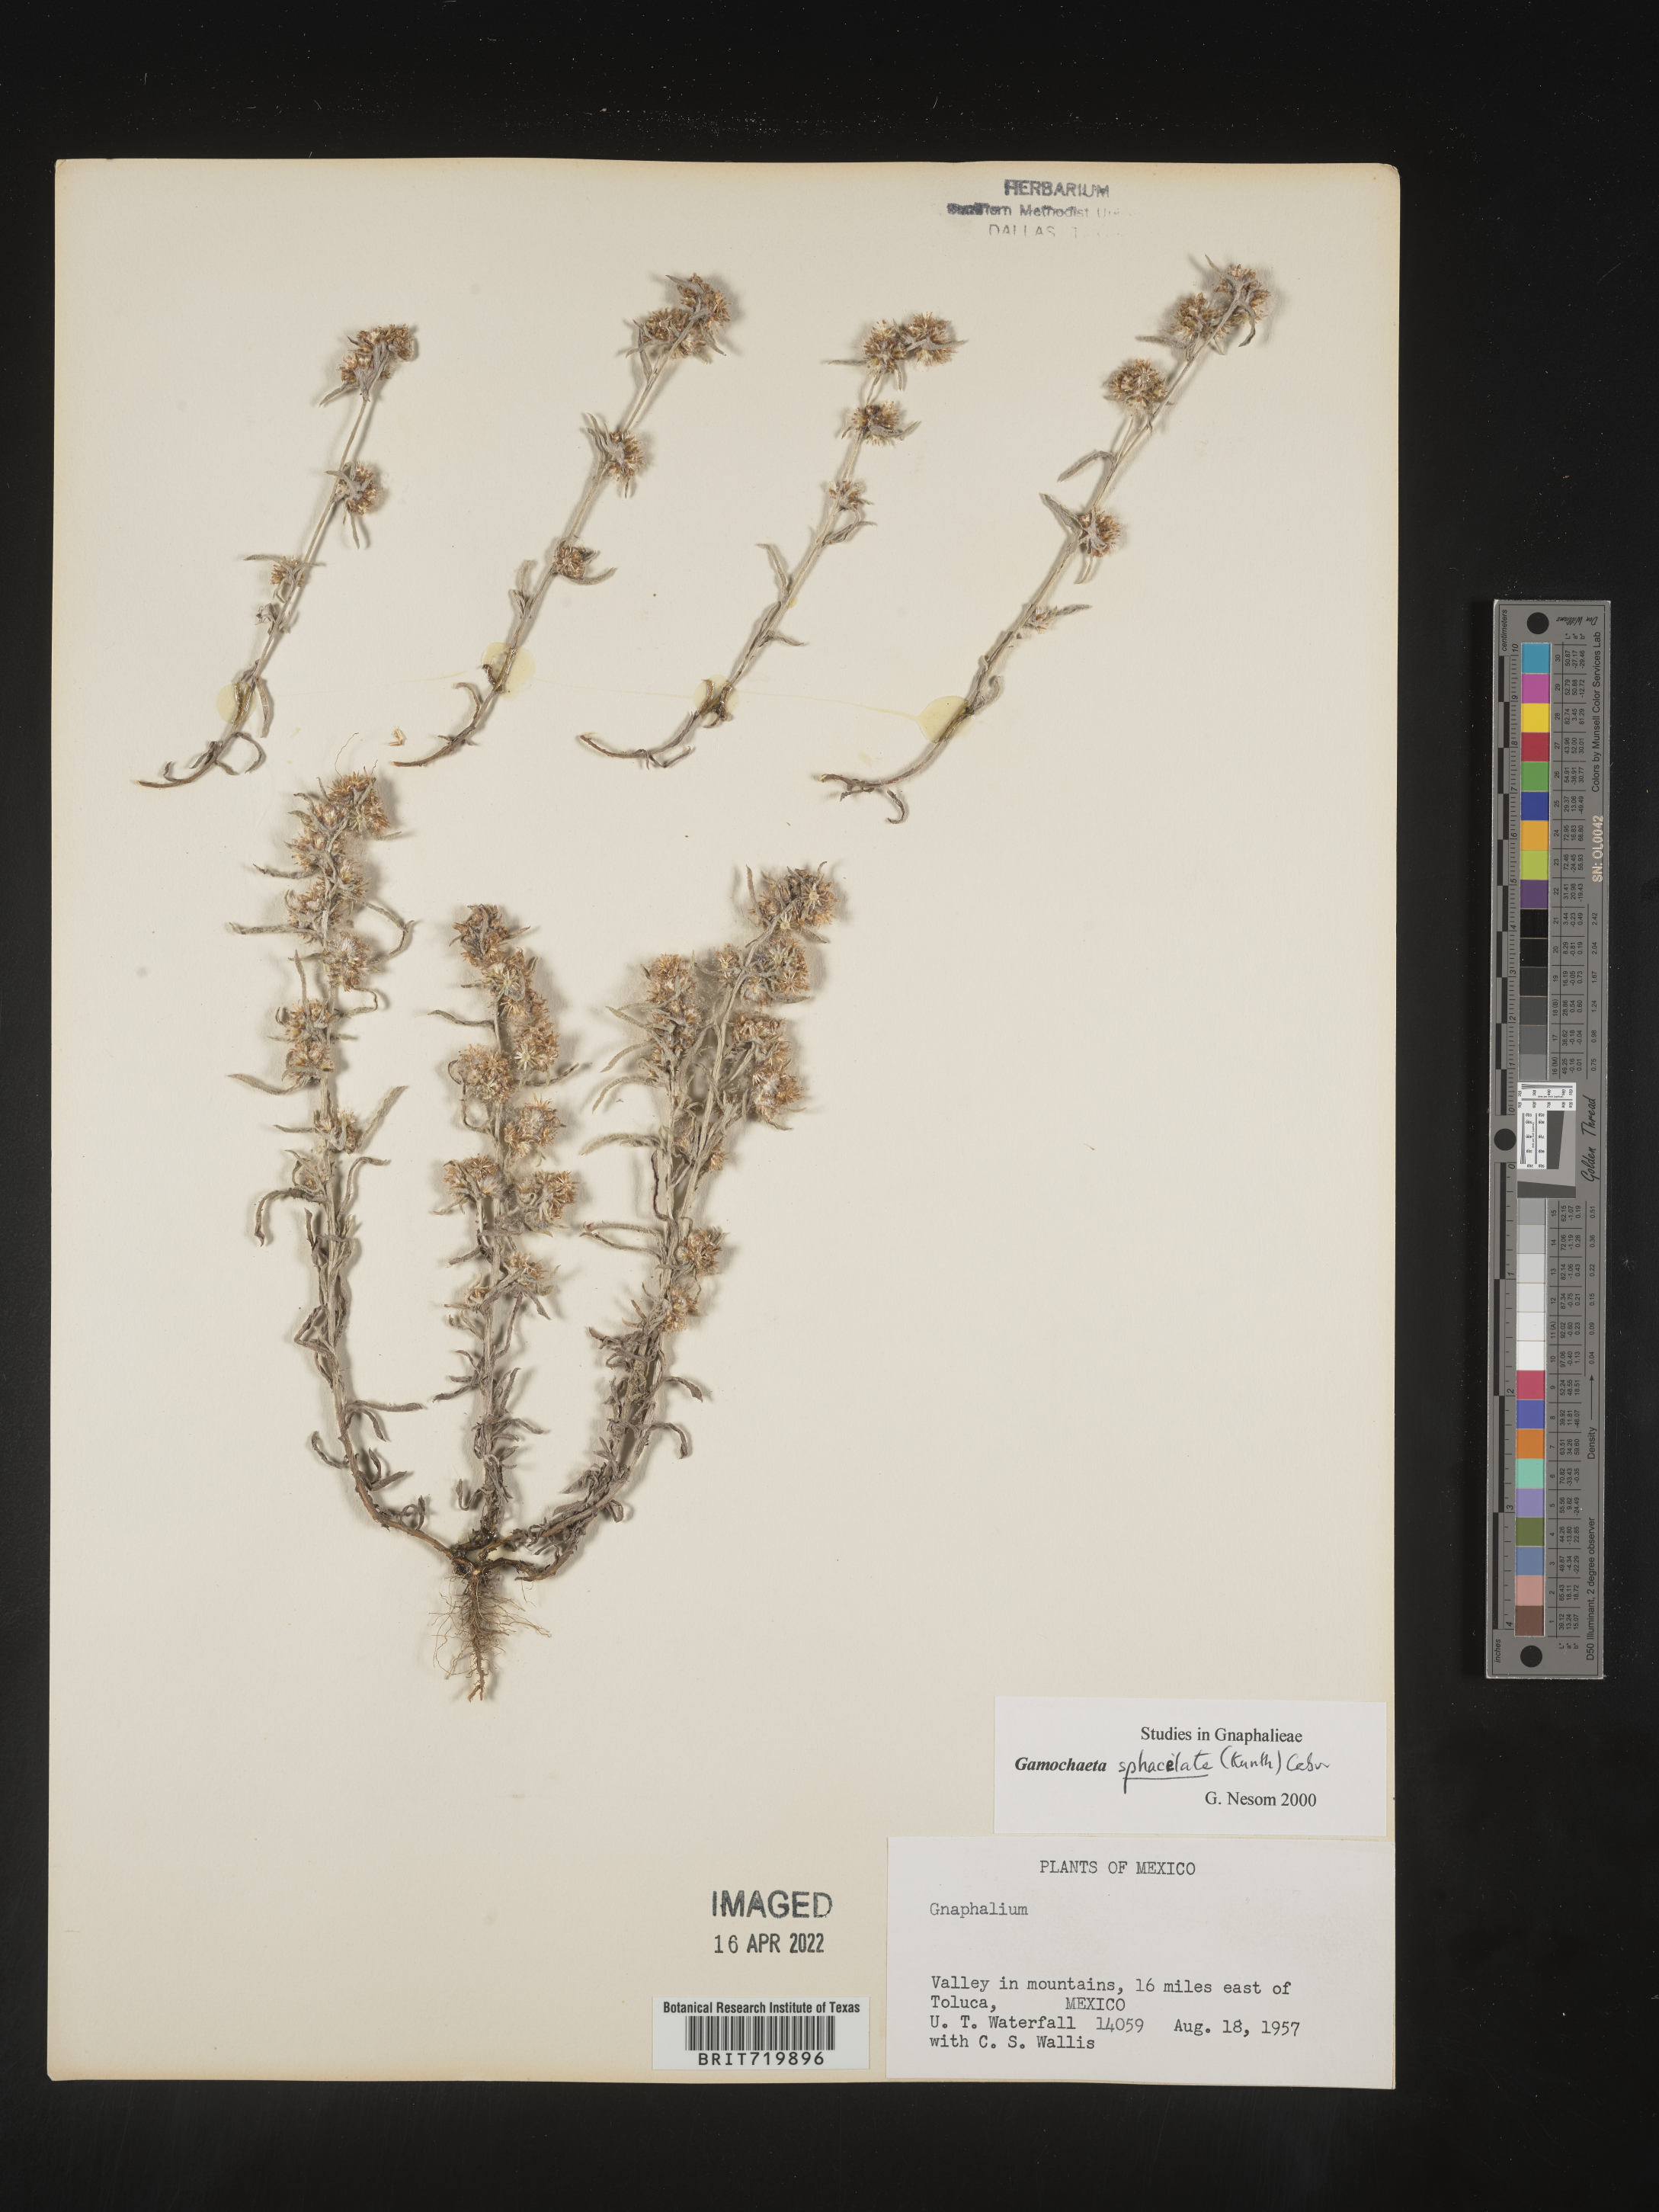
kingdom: Plantae
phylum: Tracheophyta
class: Magnoliopsida
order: Asterales
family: Asteraceae
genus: Gamochaeta
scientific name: Gamochaeta
